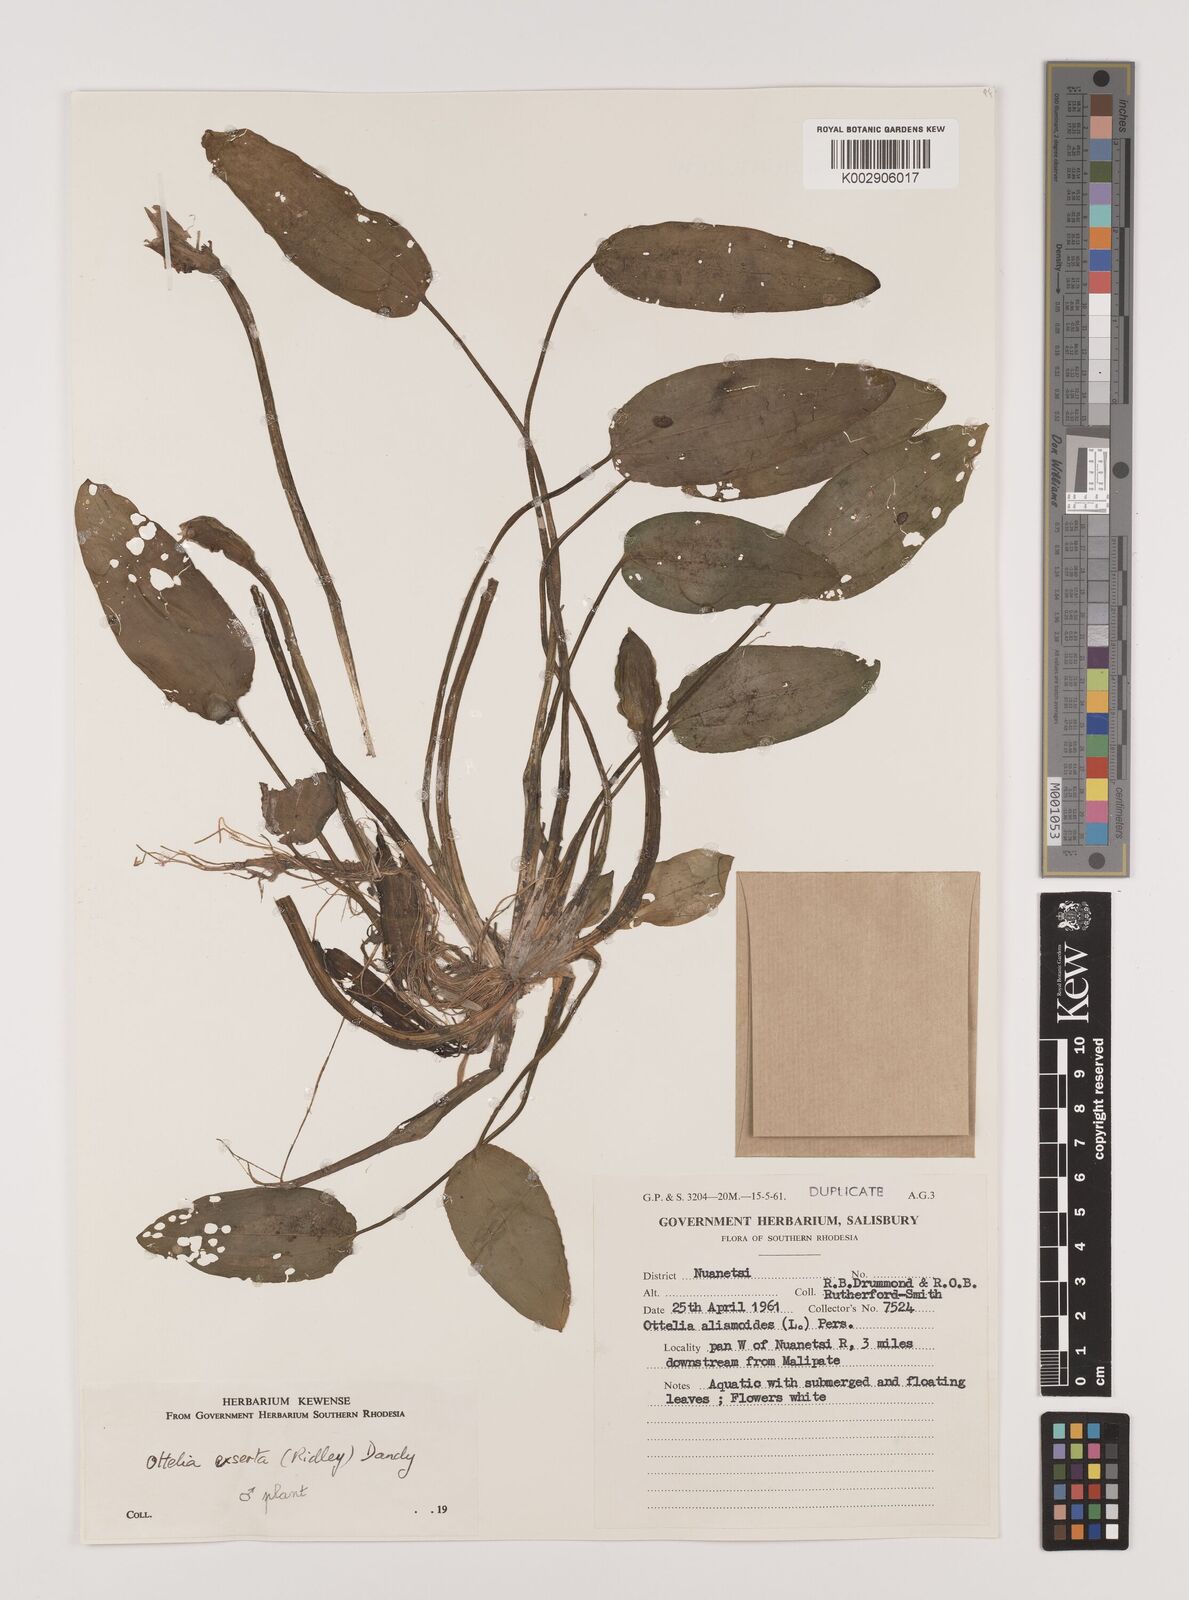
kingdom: Plantae
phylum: Tracheophyta
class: Liliopsida
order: Alismatales
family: Hydrocharitaceae
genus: Ottelia
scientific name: Ottelia exserta
